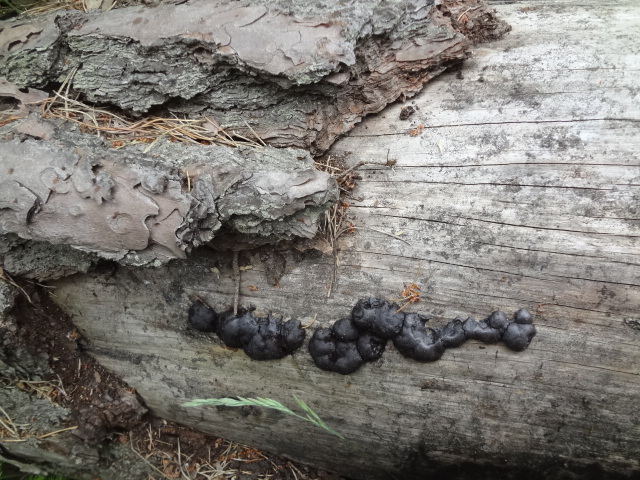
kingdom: Protozoa
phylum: Mycetozoa
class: Myxomycetes
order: Stemonitidales
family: Stemonitidaceae
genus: Amaurochaete
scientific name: Amaurochaete atra
